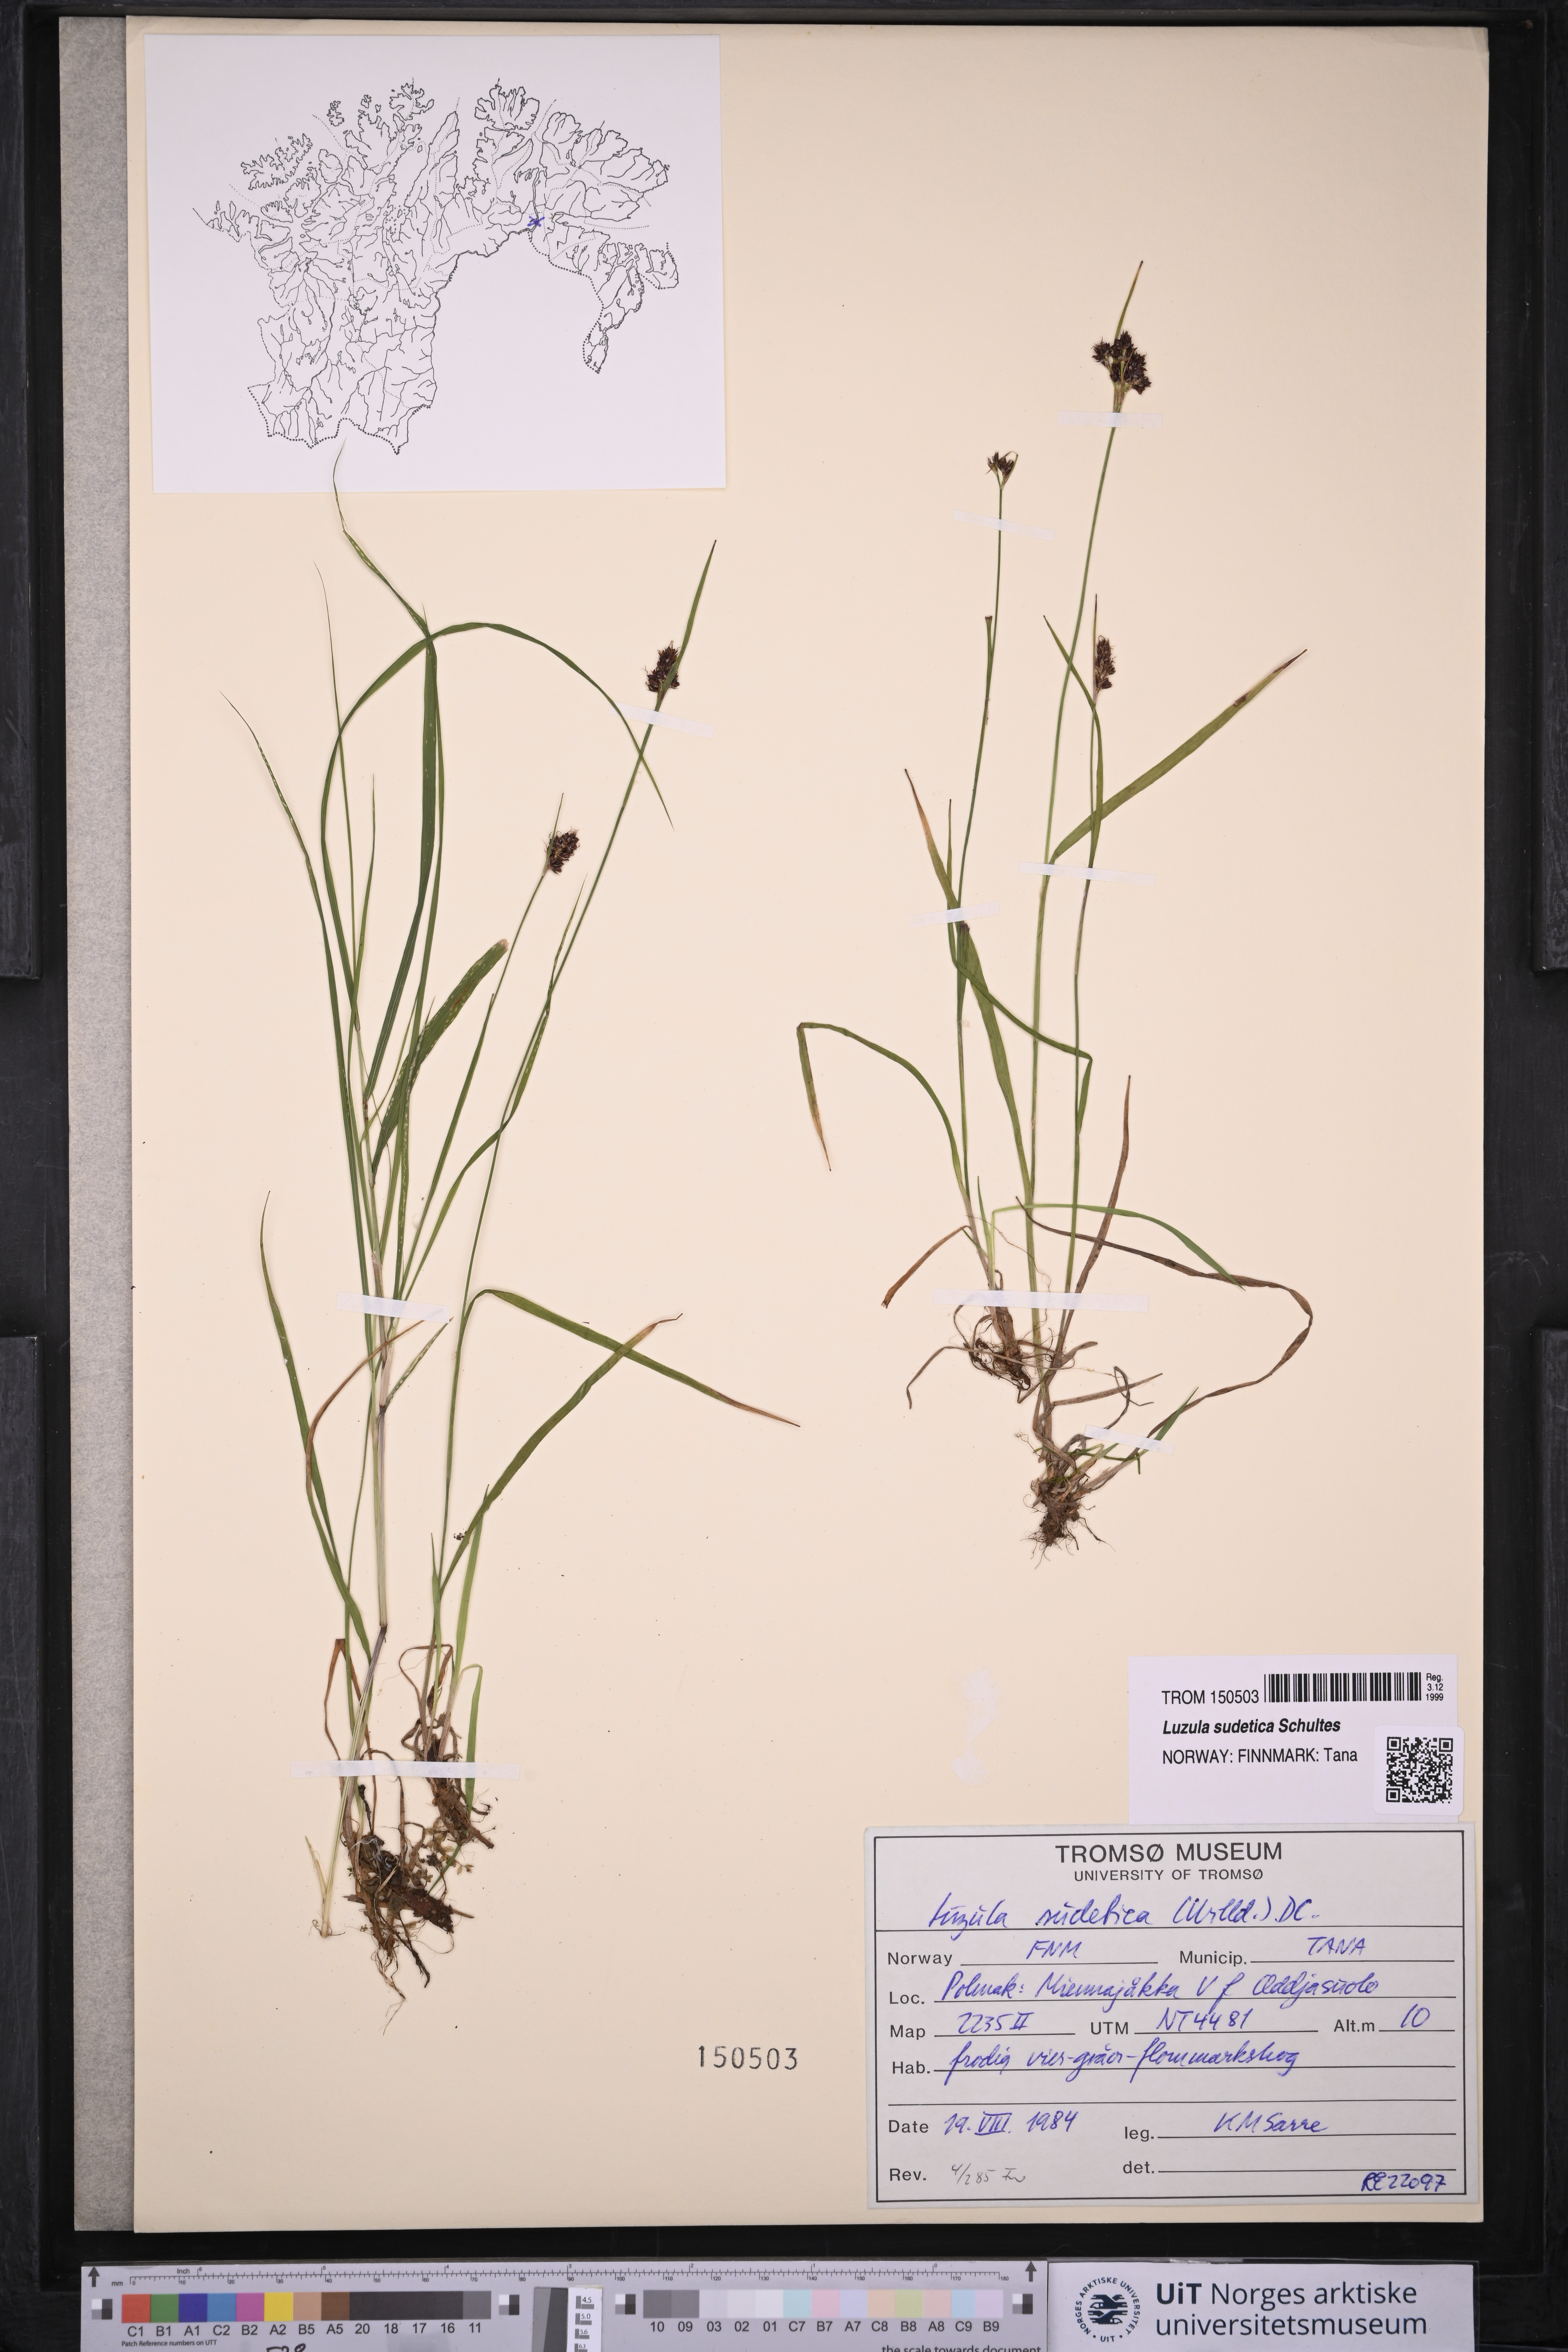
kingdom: Plantae
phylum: Tracheophyta
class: Liliopsida
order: Poales
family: Juncaceae
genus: Luzula
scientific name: Luzula sudetica
